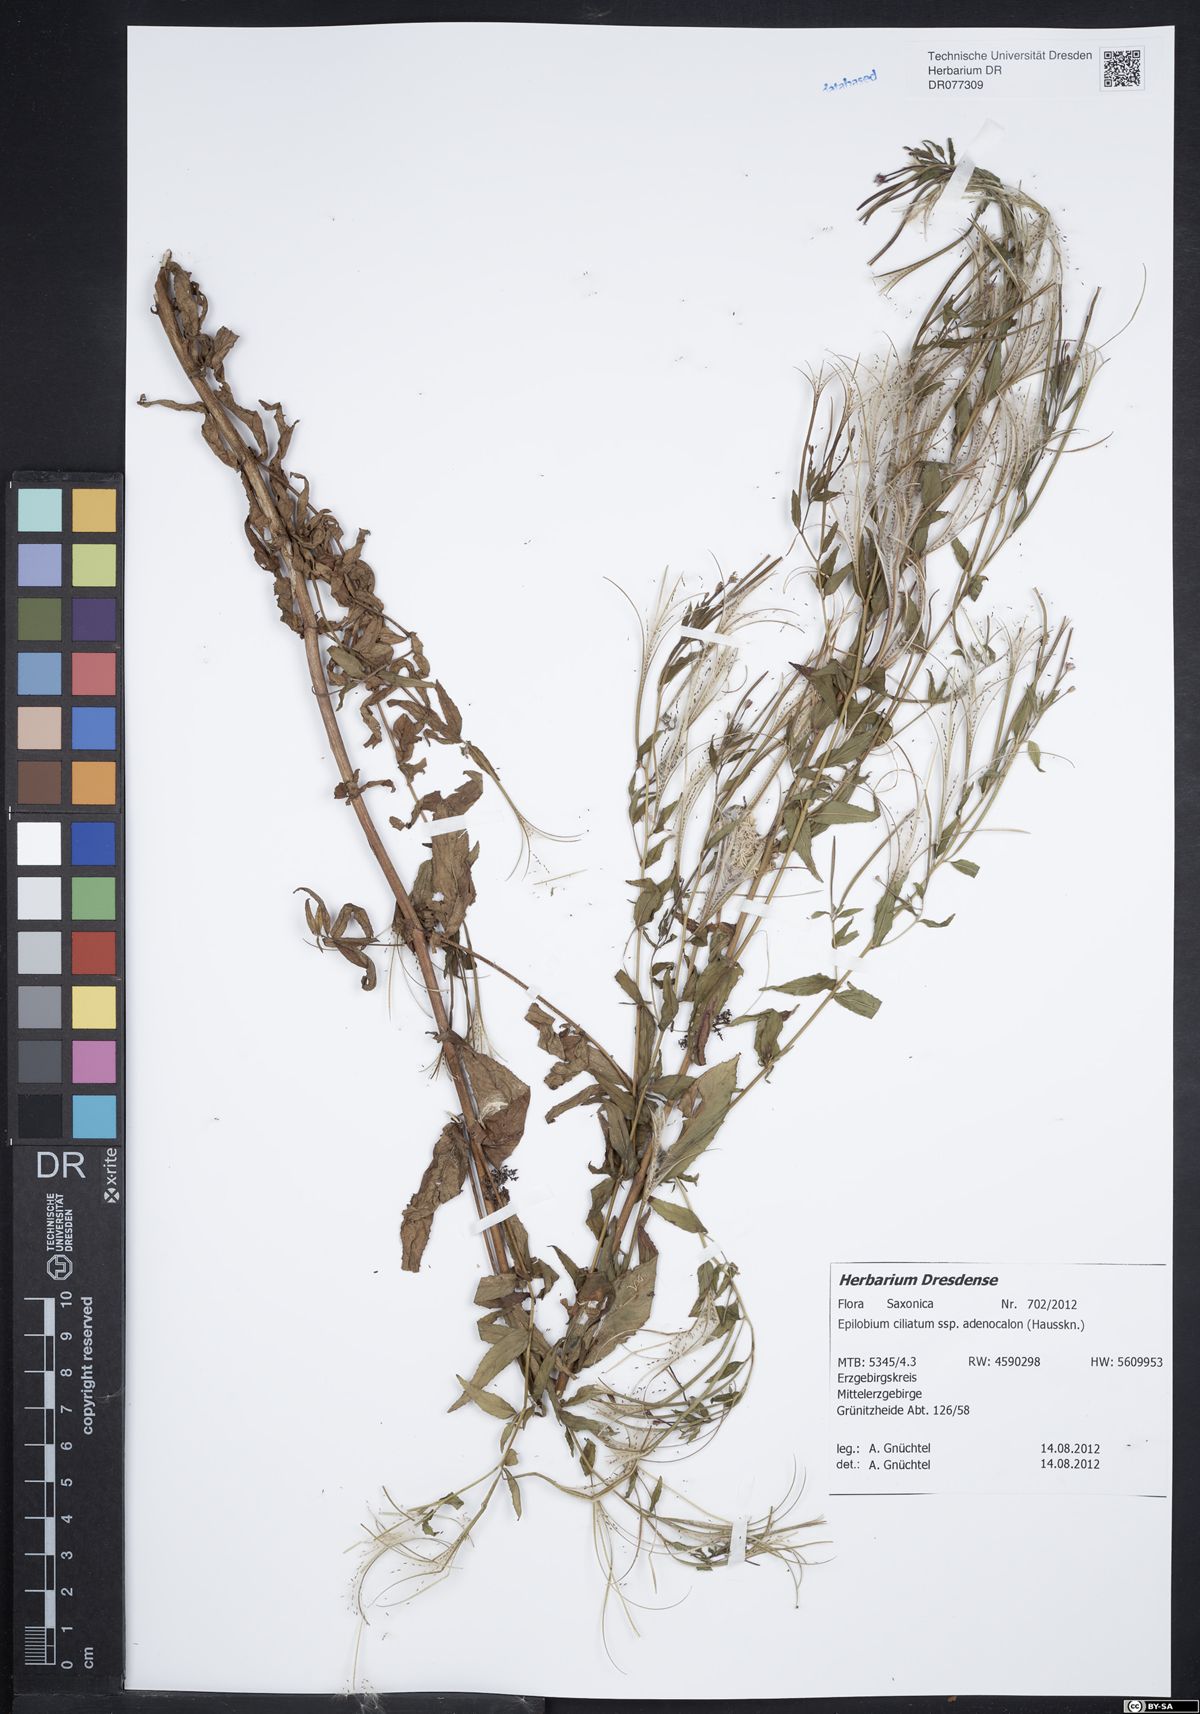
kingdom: Plantae
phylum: Tracheophyta
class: Magnoliopsida
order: Myrtales
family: Onagraceae
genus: Epilobium
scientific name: Epilobium ciliatum
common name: American willowherb
